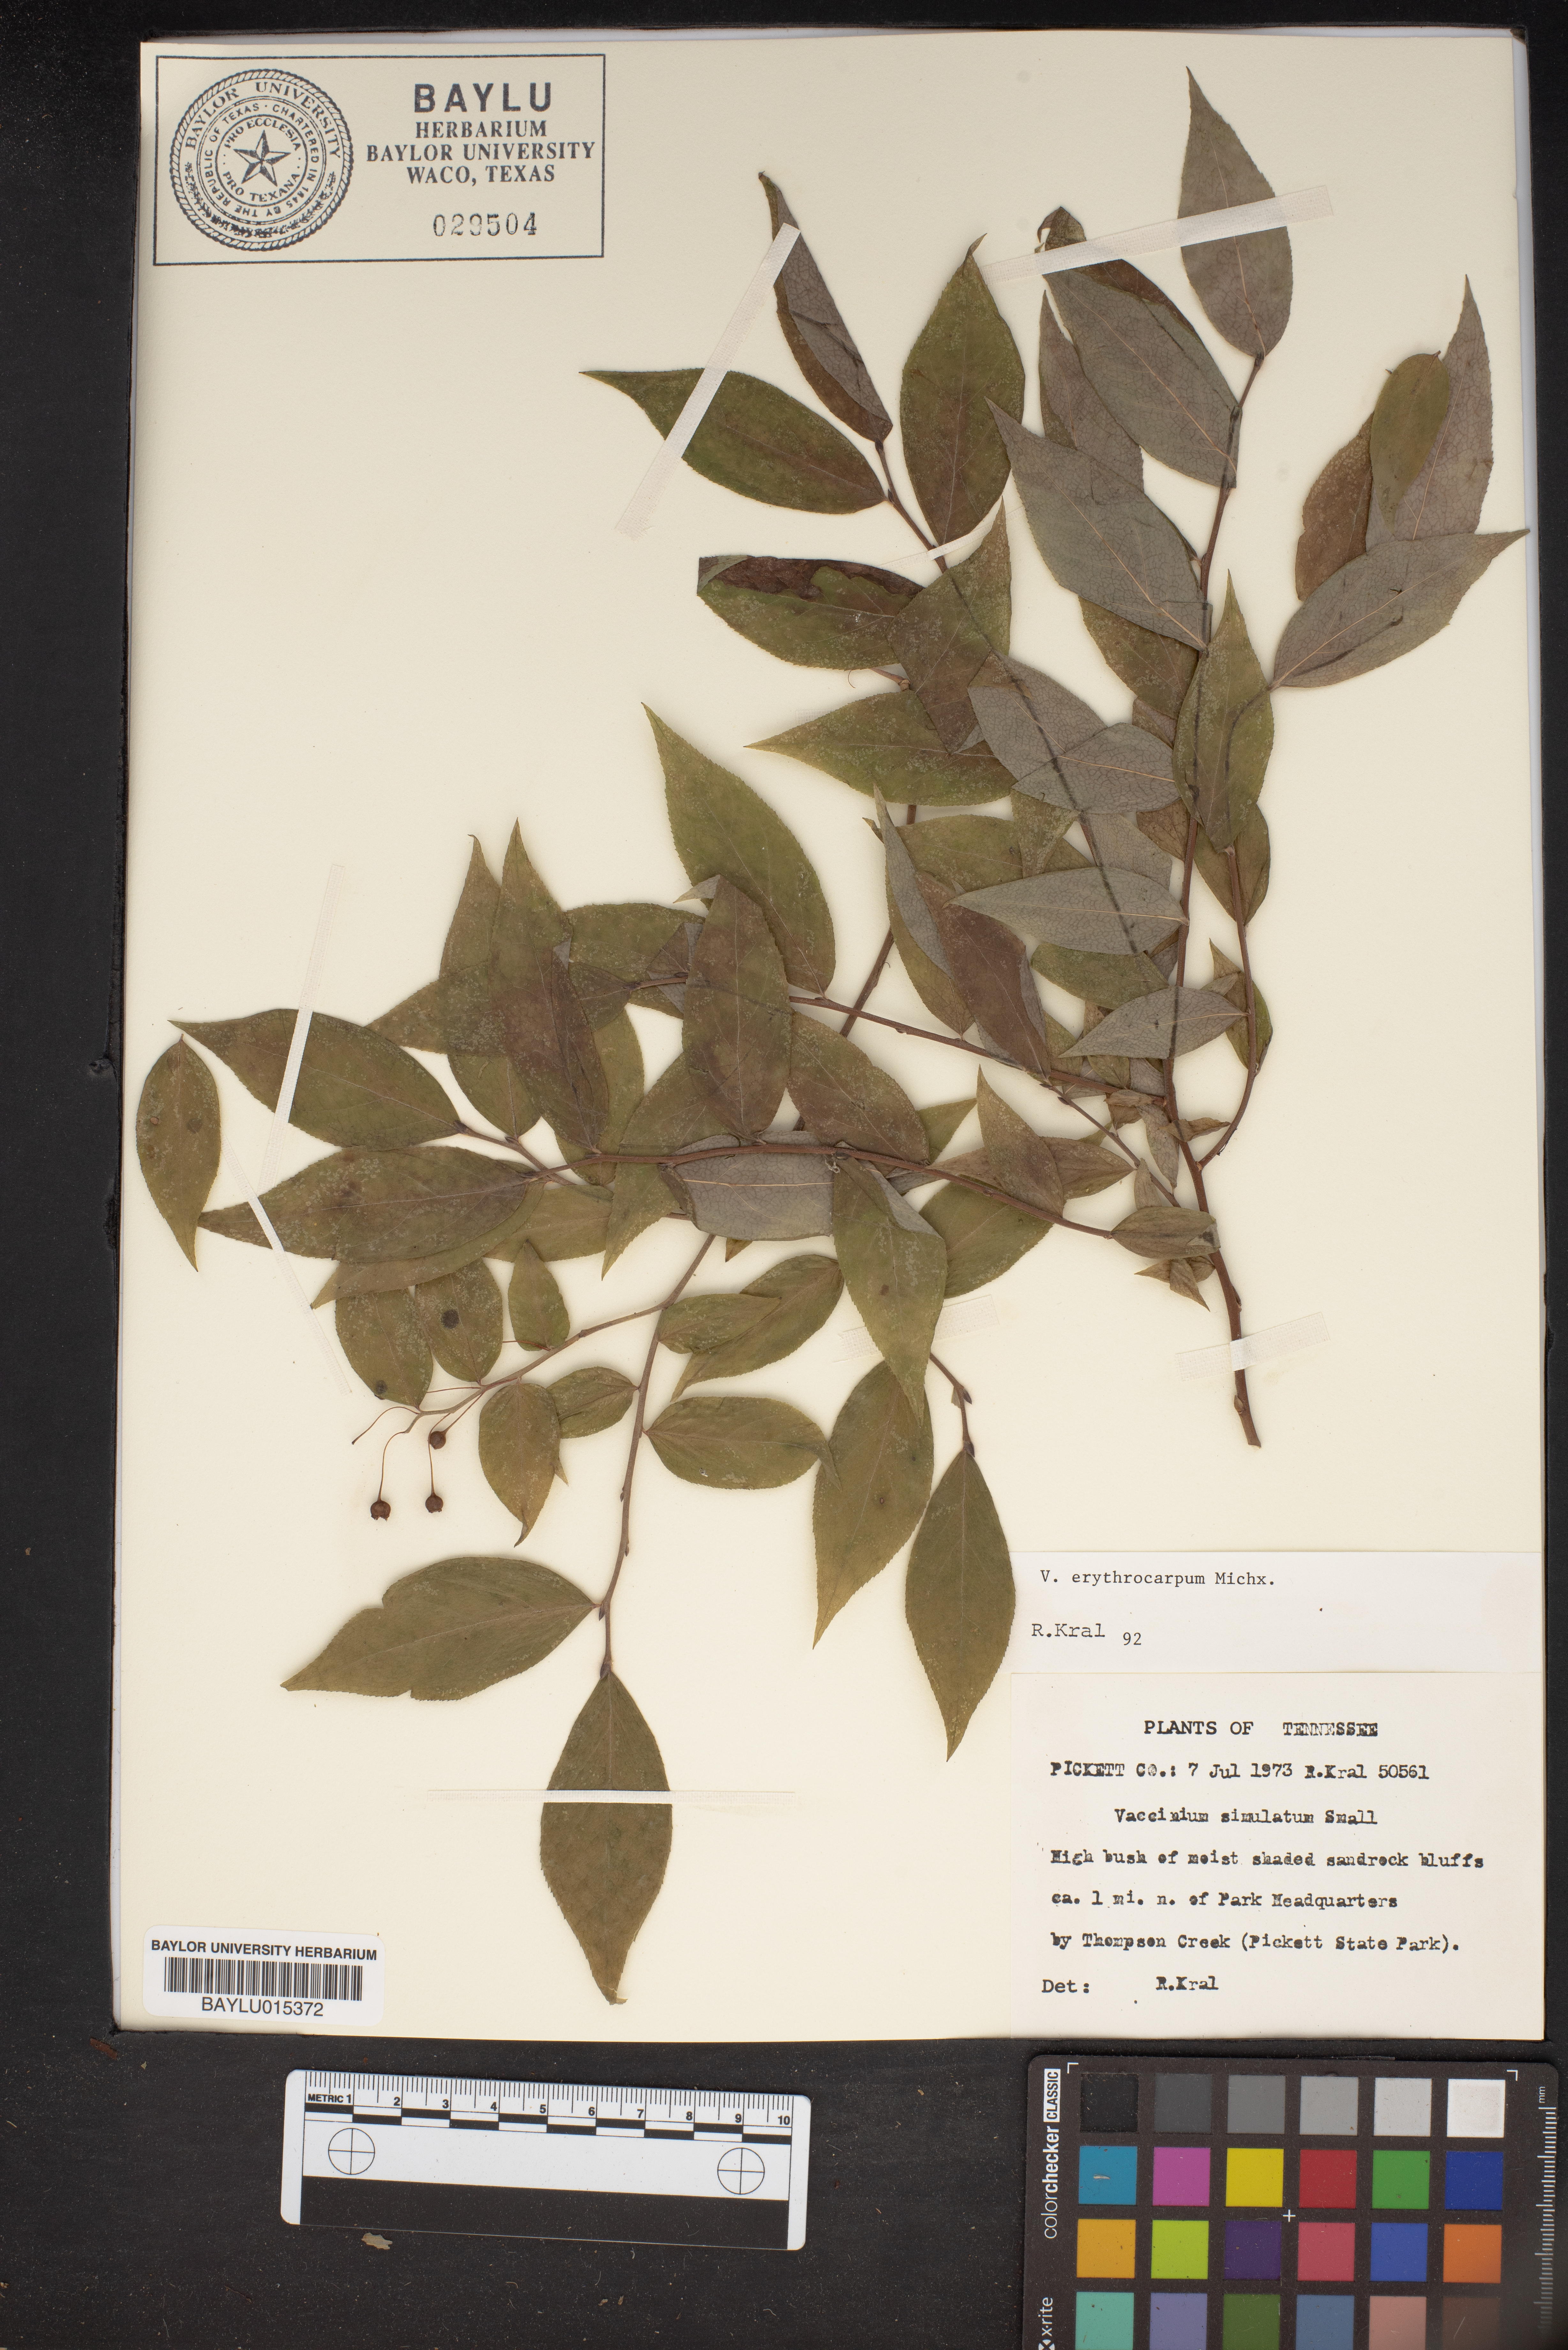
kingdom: Plantae
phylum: Tracheophyta
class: Magnoliopsida
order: Ericales
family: Ericaceae
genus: Vaccinium
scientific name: Vaccinium erythrocarpum
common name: Bearberry
